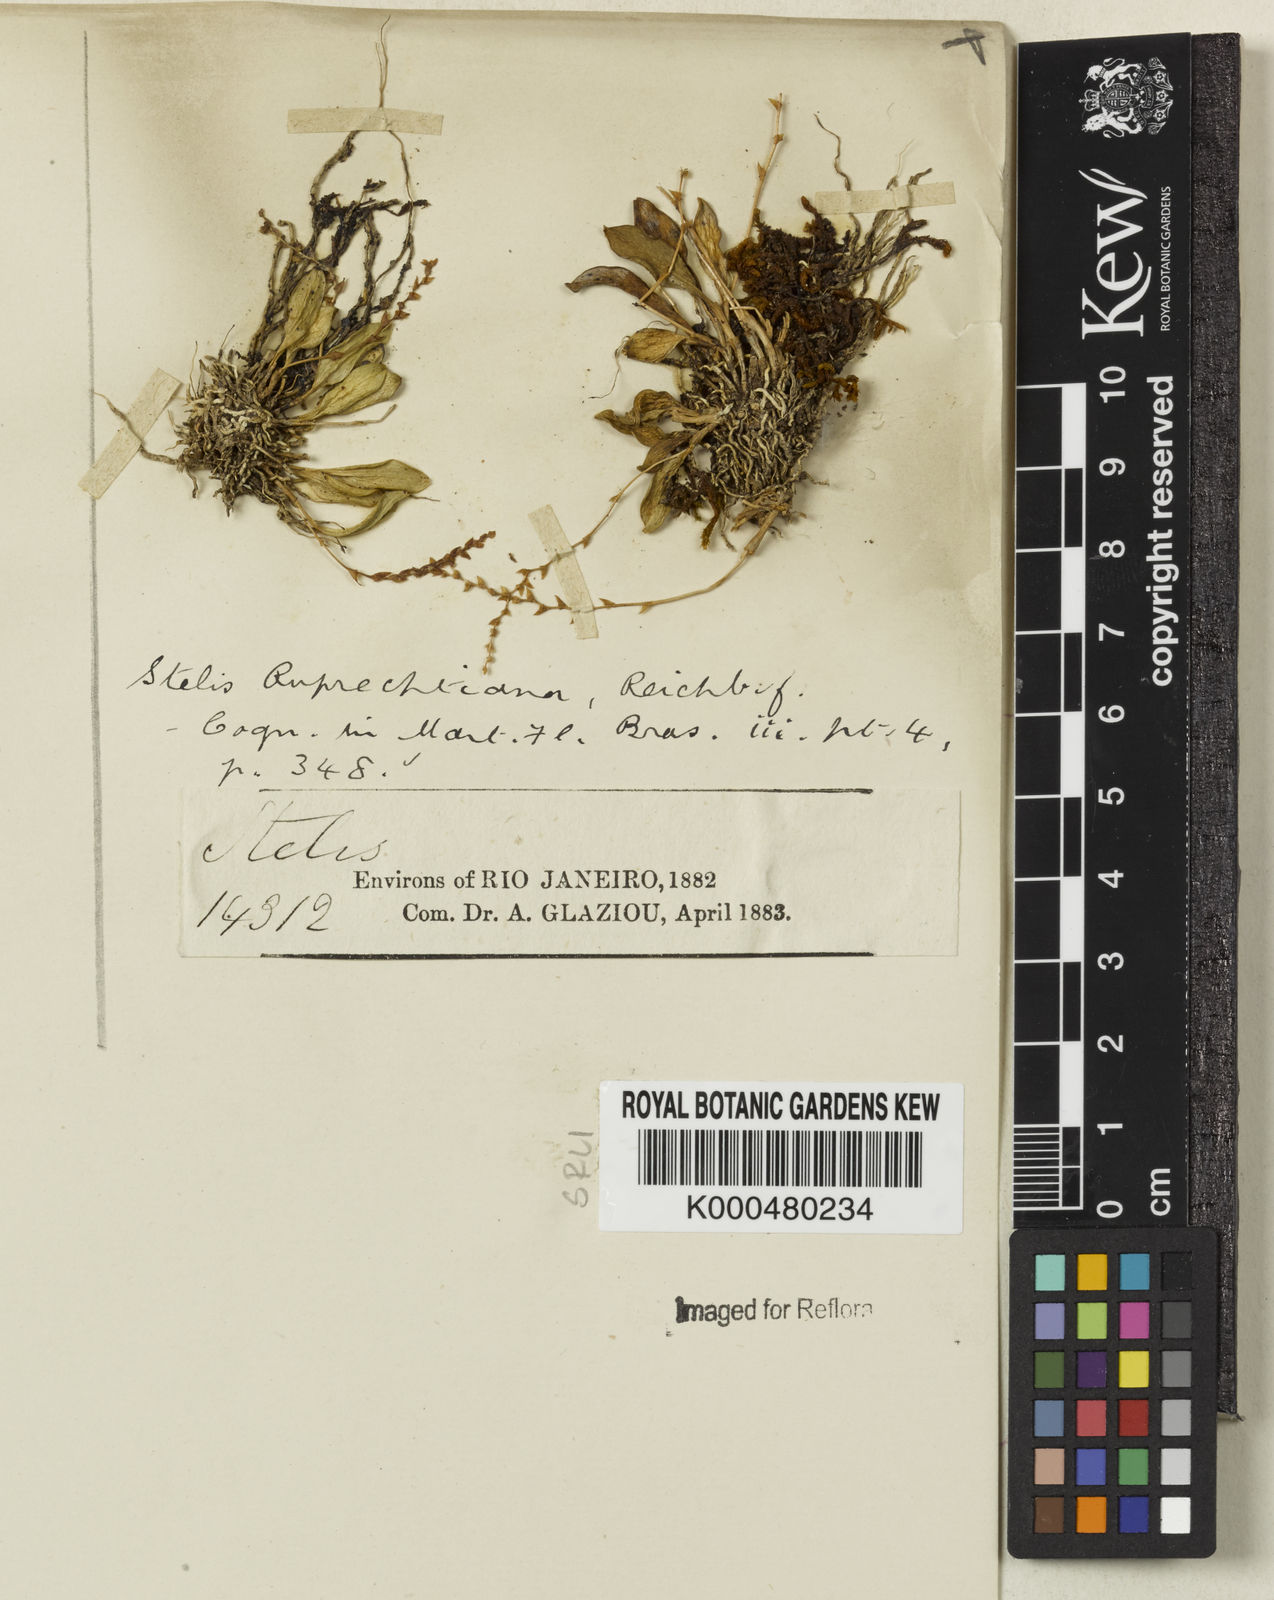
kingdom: Plantae
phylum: Tracheophyta
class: Liliopsida
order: Asparagales
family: Orchidaceae
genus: Stelis
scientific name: Stelis ruprechtiana
